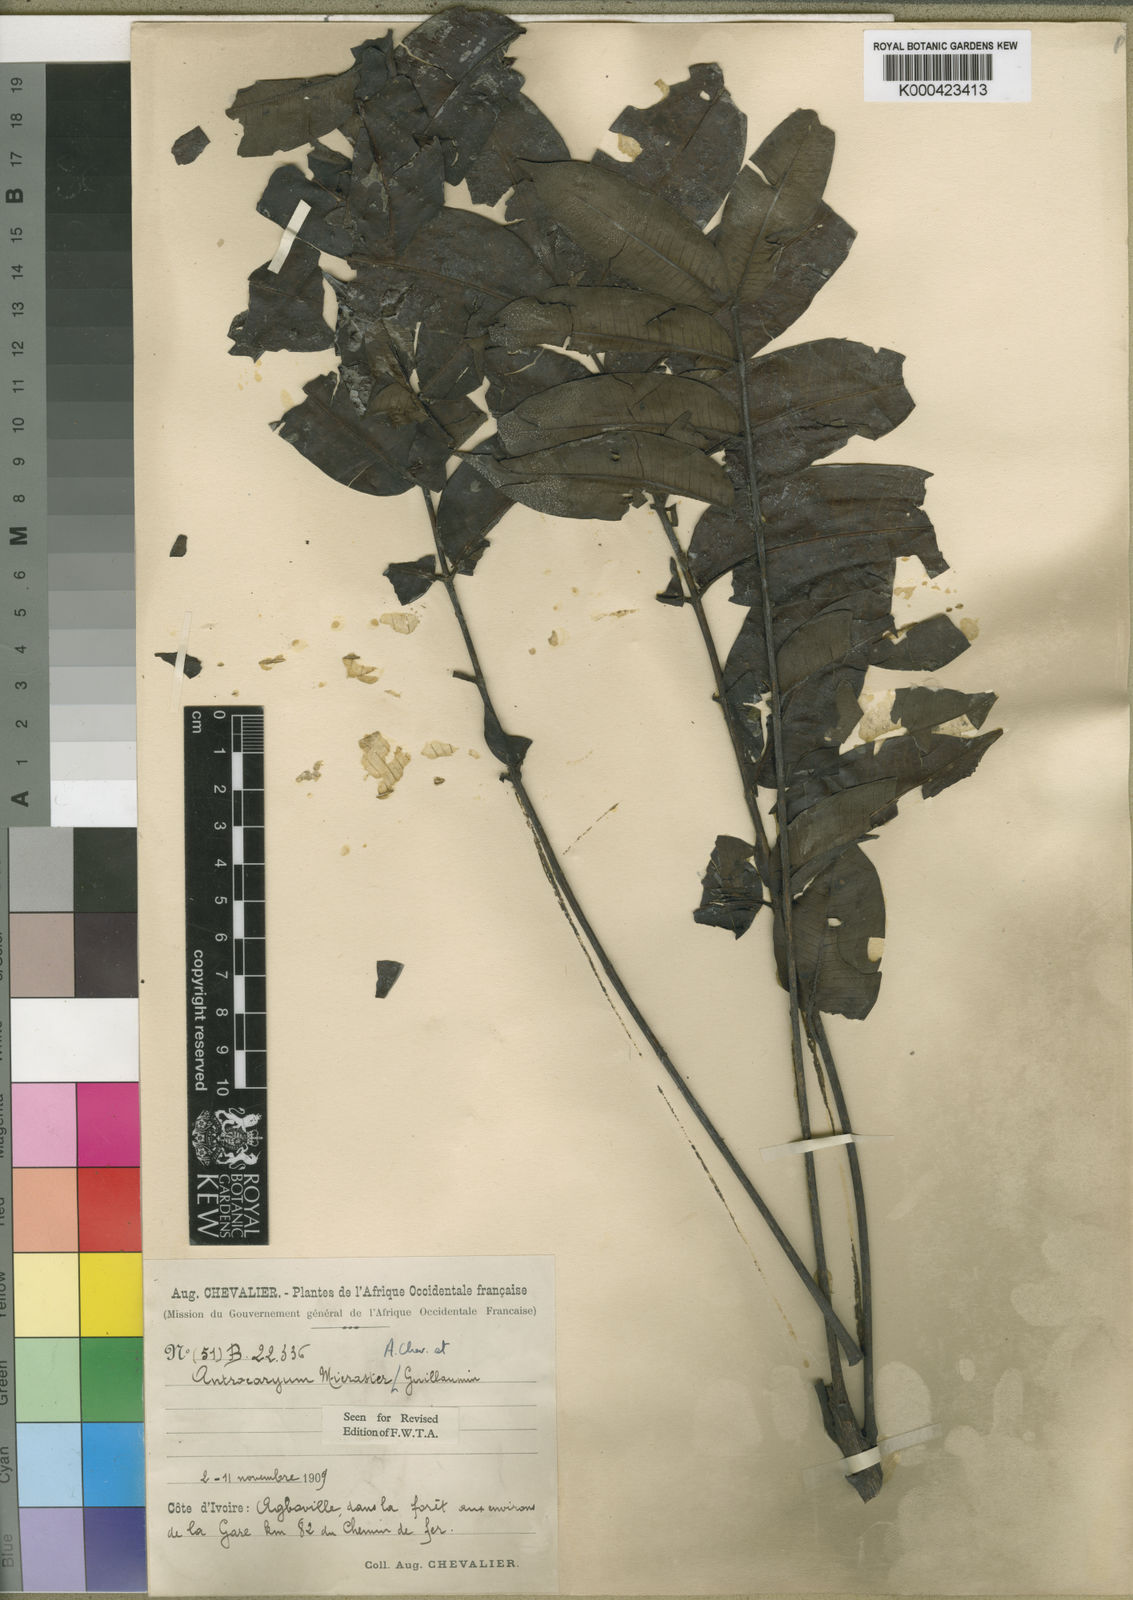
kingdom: Plantae
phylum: Tracheophyta
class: Magnoliopsida
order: Sapindales
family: Anacardiaceae
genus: Antrocaryon
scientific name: Antrocaryon micraster
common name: Antrocaryon
